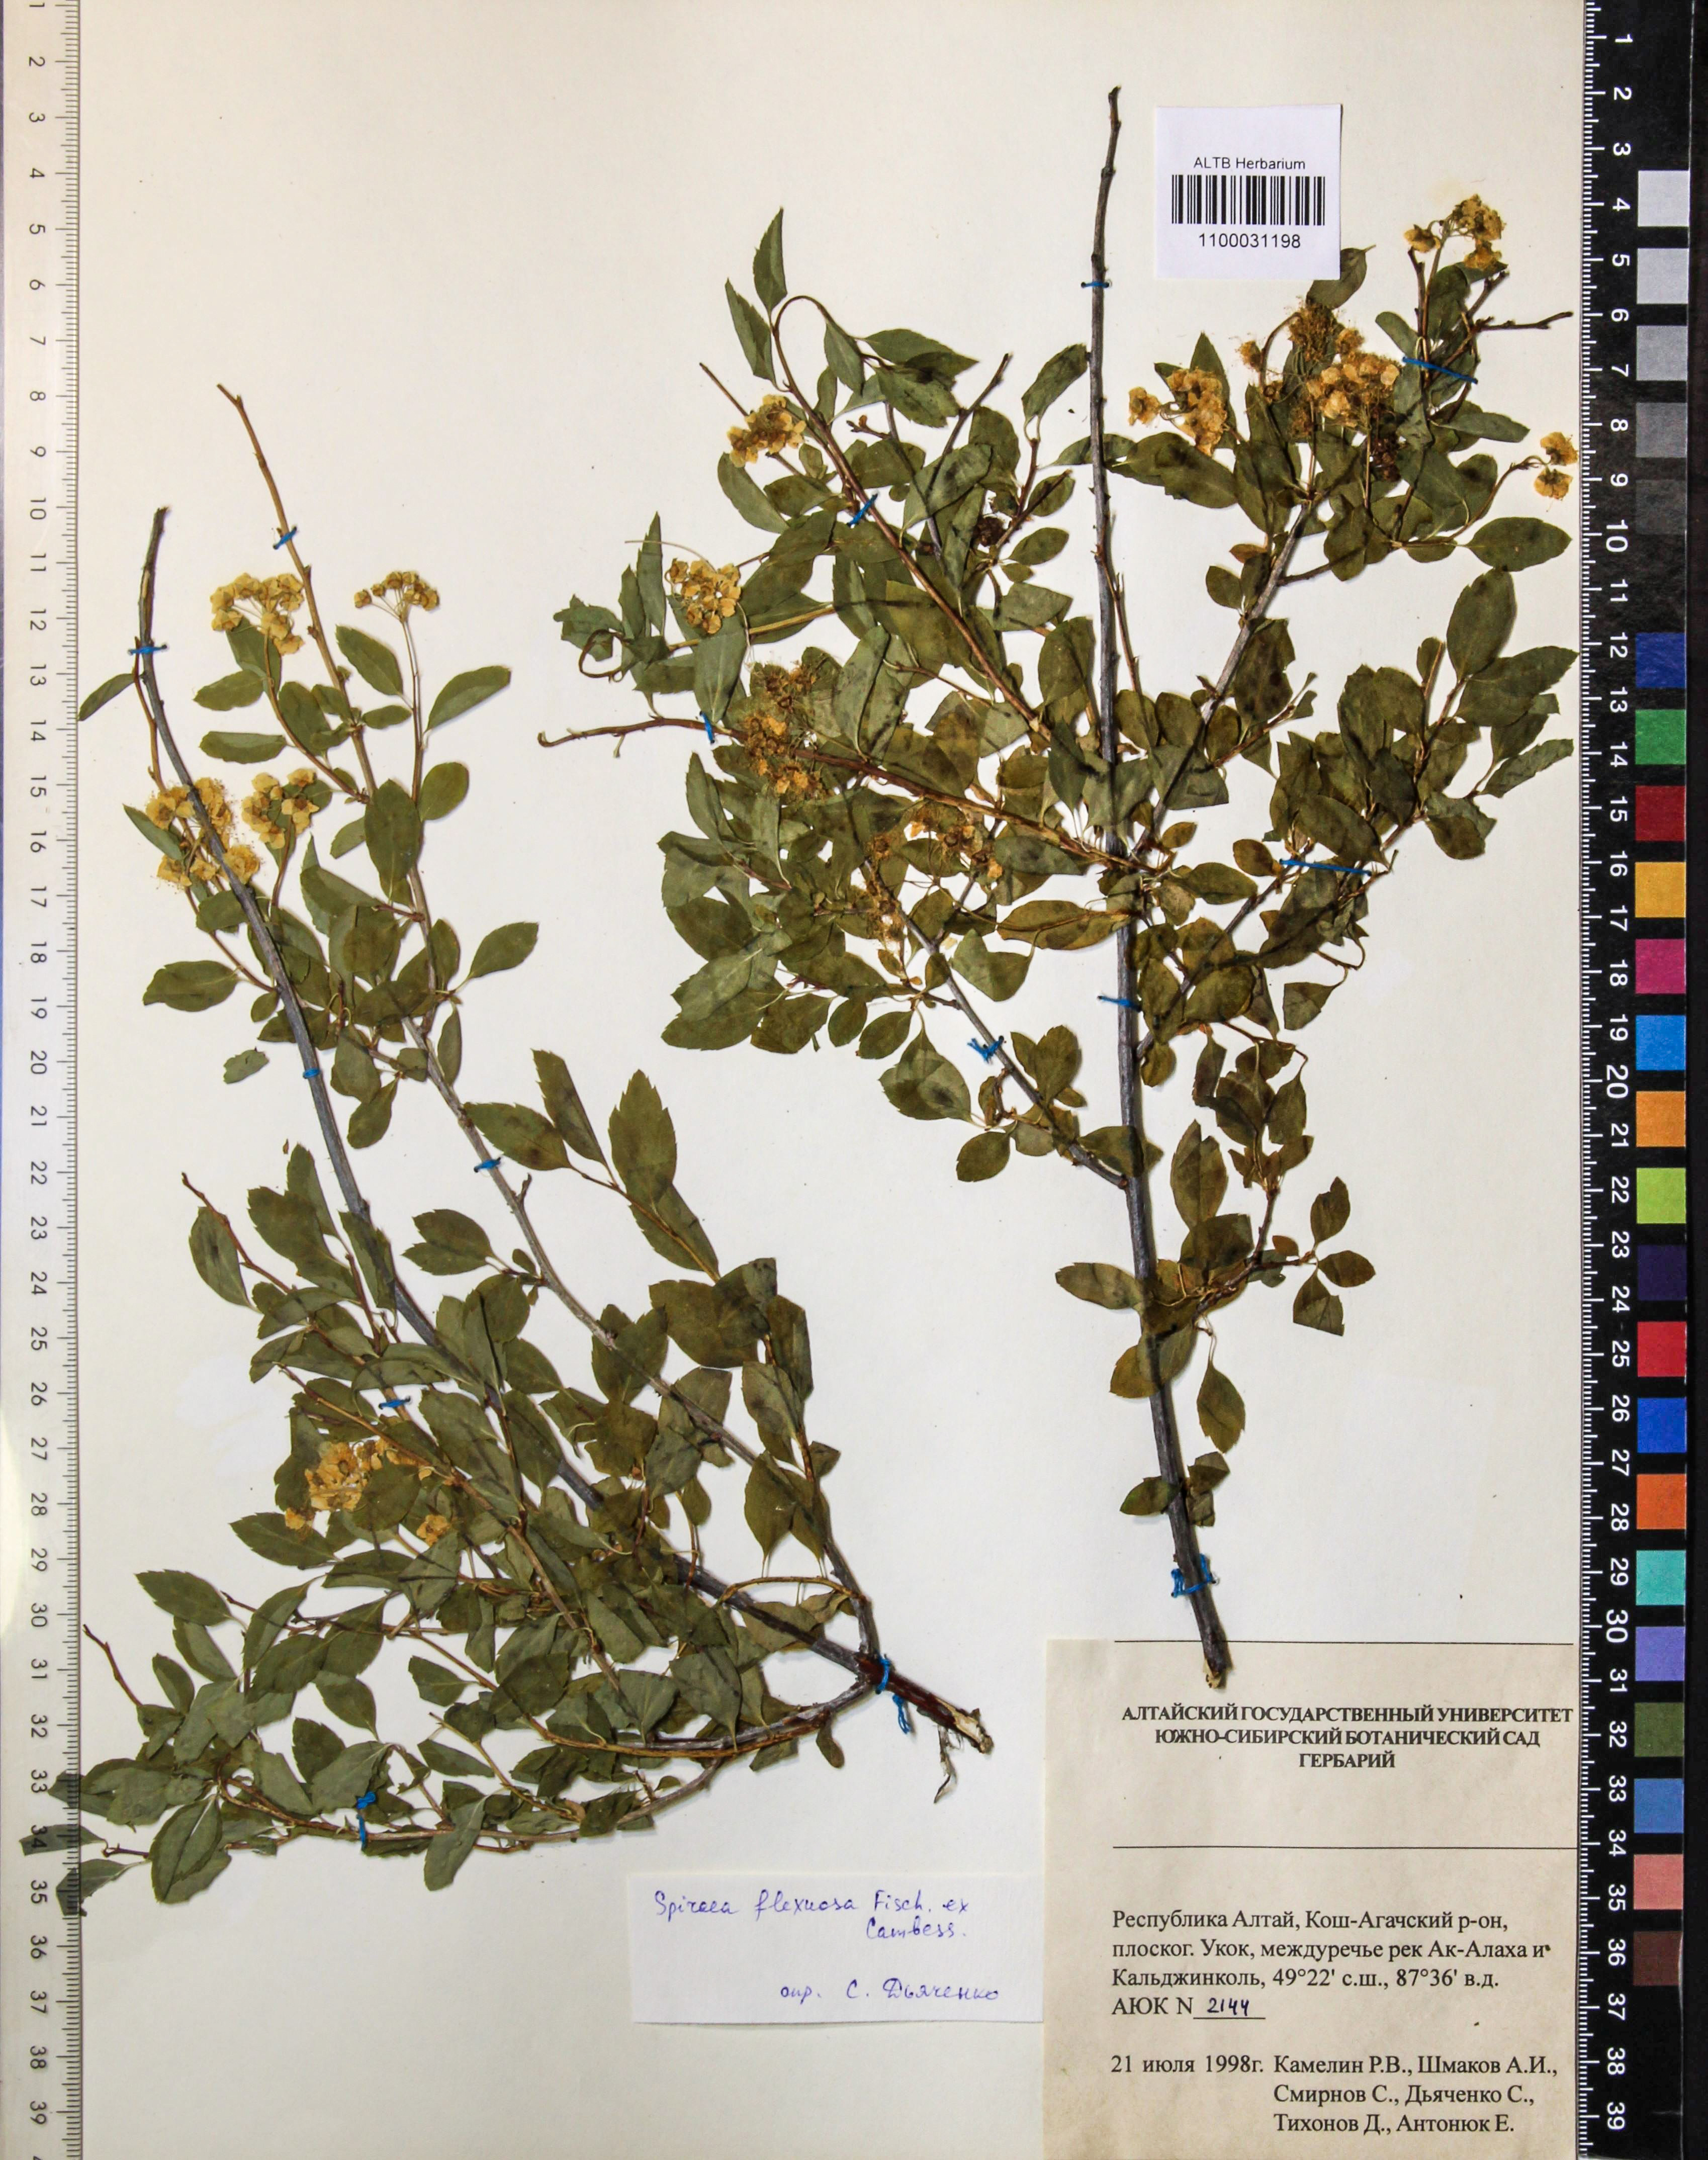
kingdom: Plantae
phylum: Tracheophyta
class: Magnoliopsida
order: Rosales
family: Rosaceae
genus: Spiraea
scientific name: Spiraea flexuosa
